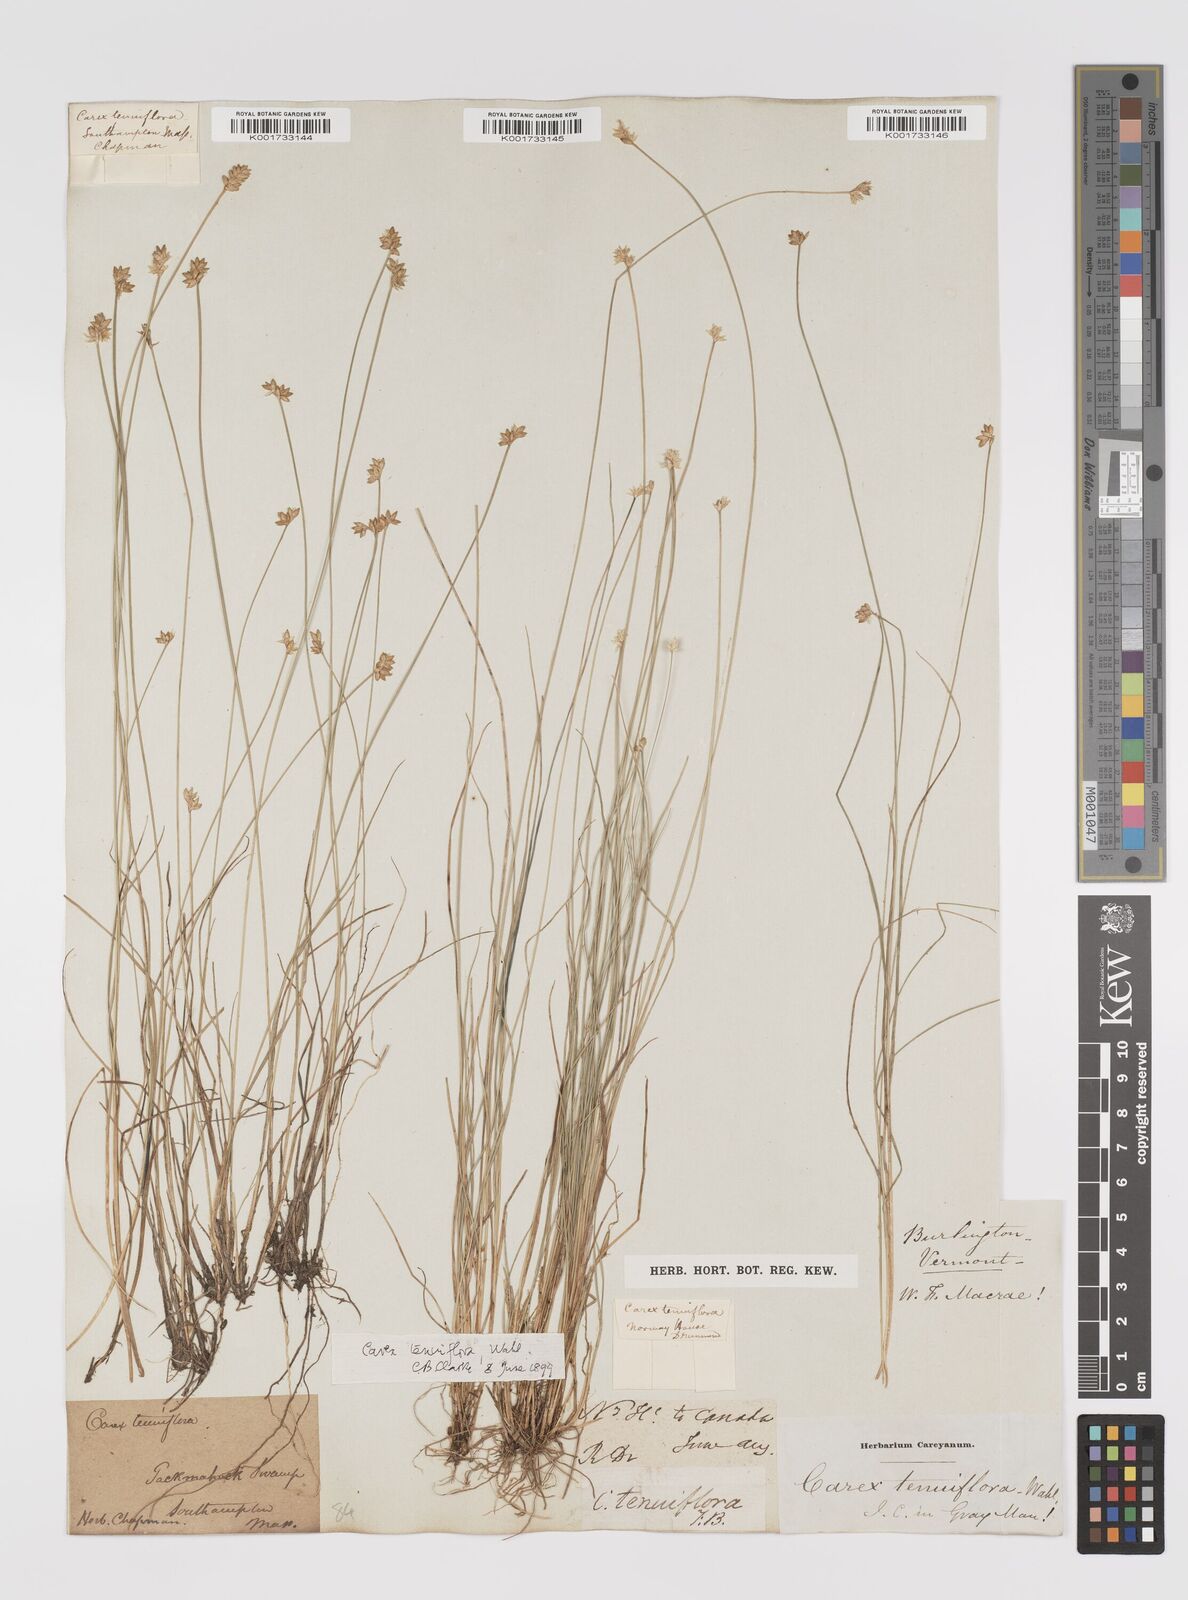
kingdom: Plantae
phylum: Tracheophyta
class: Liliopsida
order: Poales
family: Cyperaceae
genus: Carex
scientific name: Carex tenuiflora
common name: Sparse-flowered sedge
